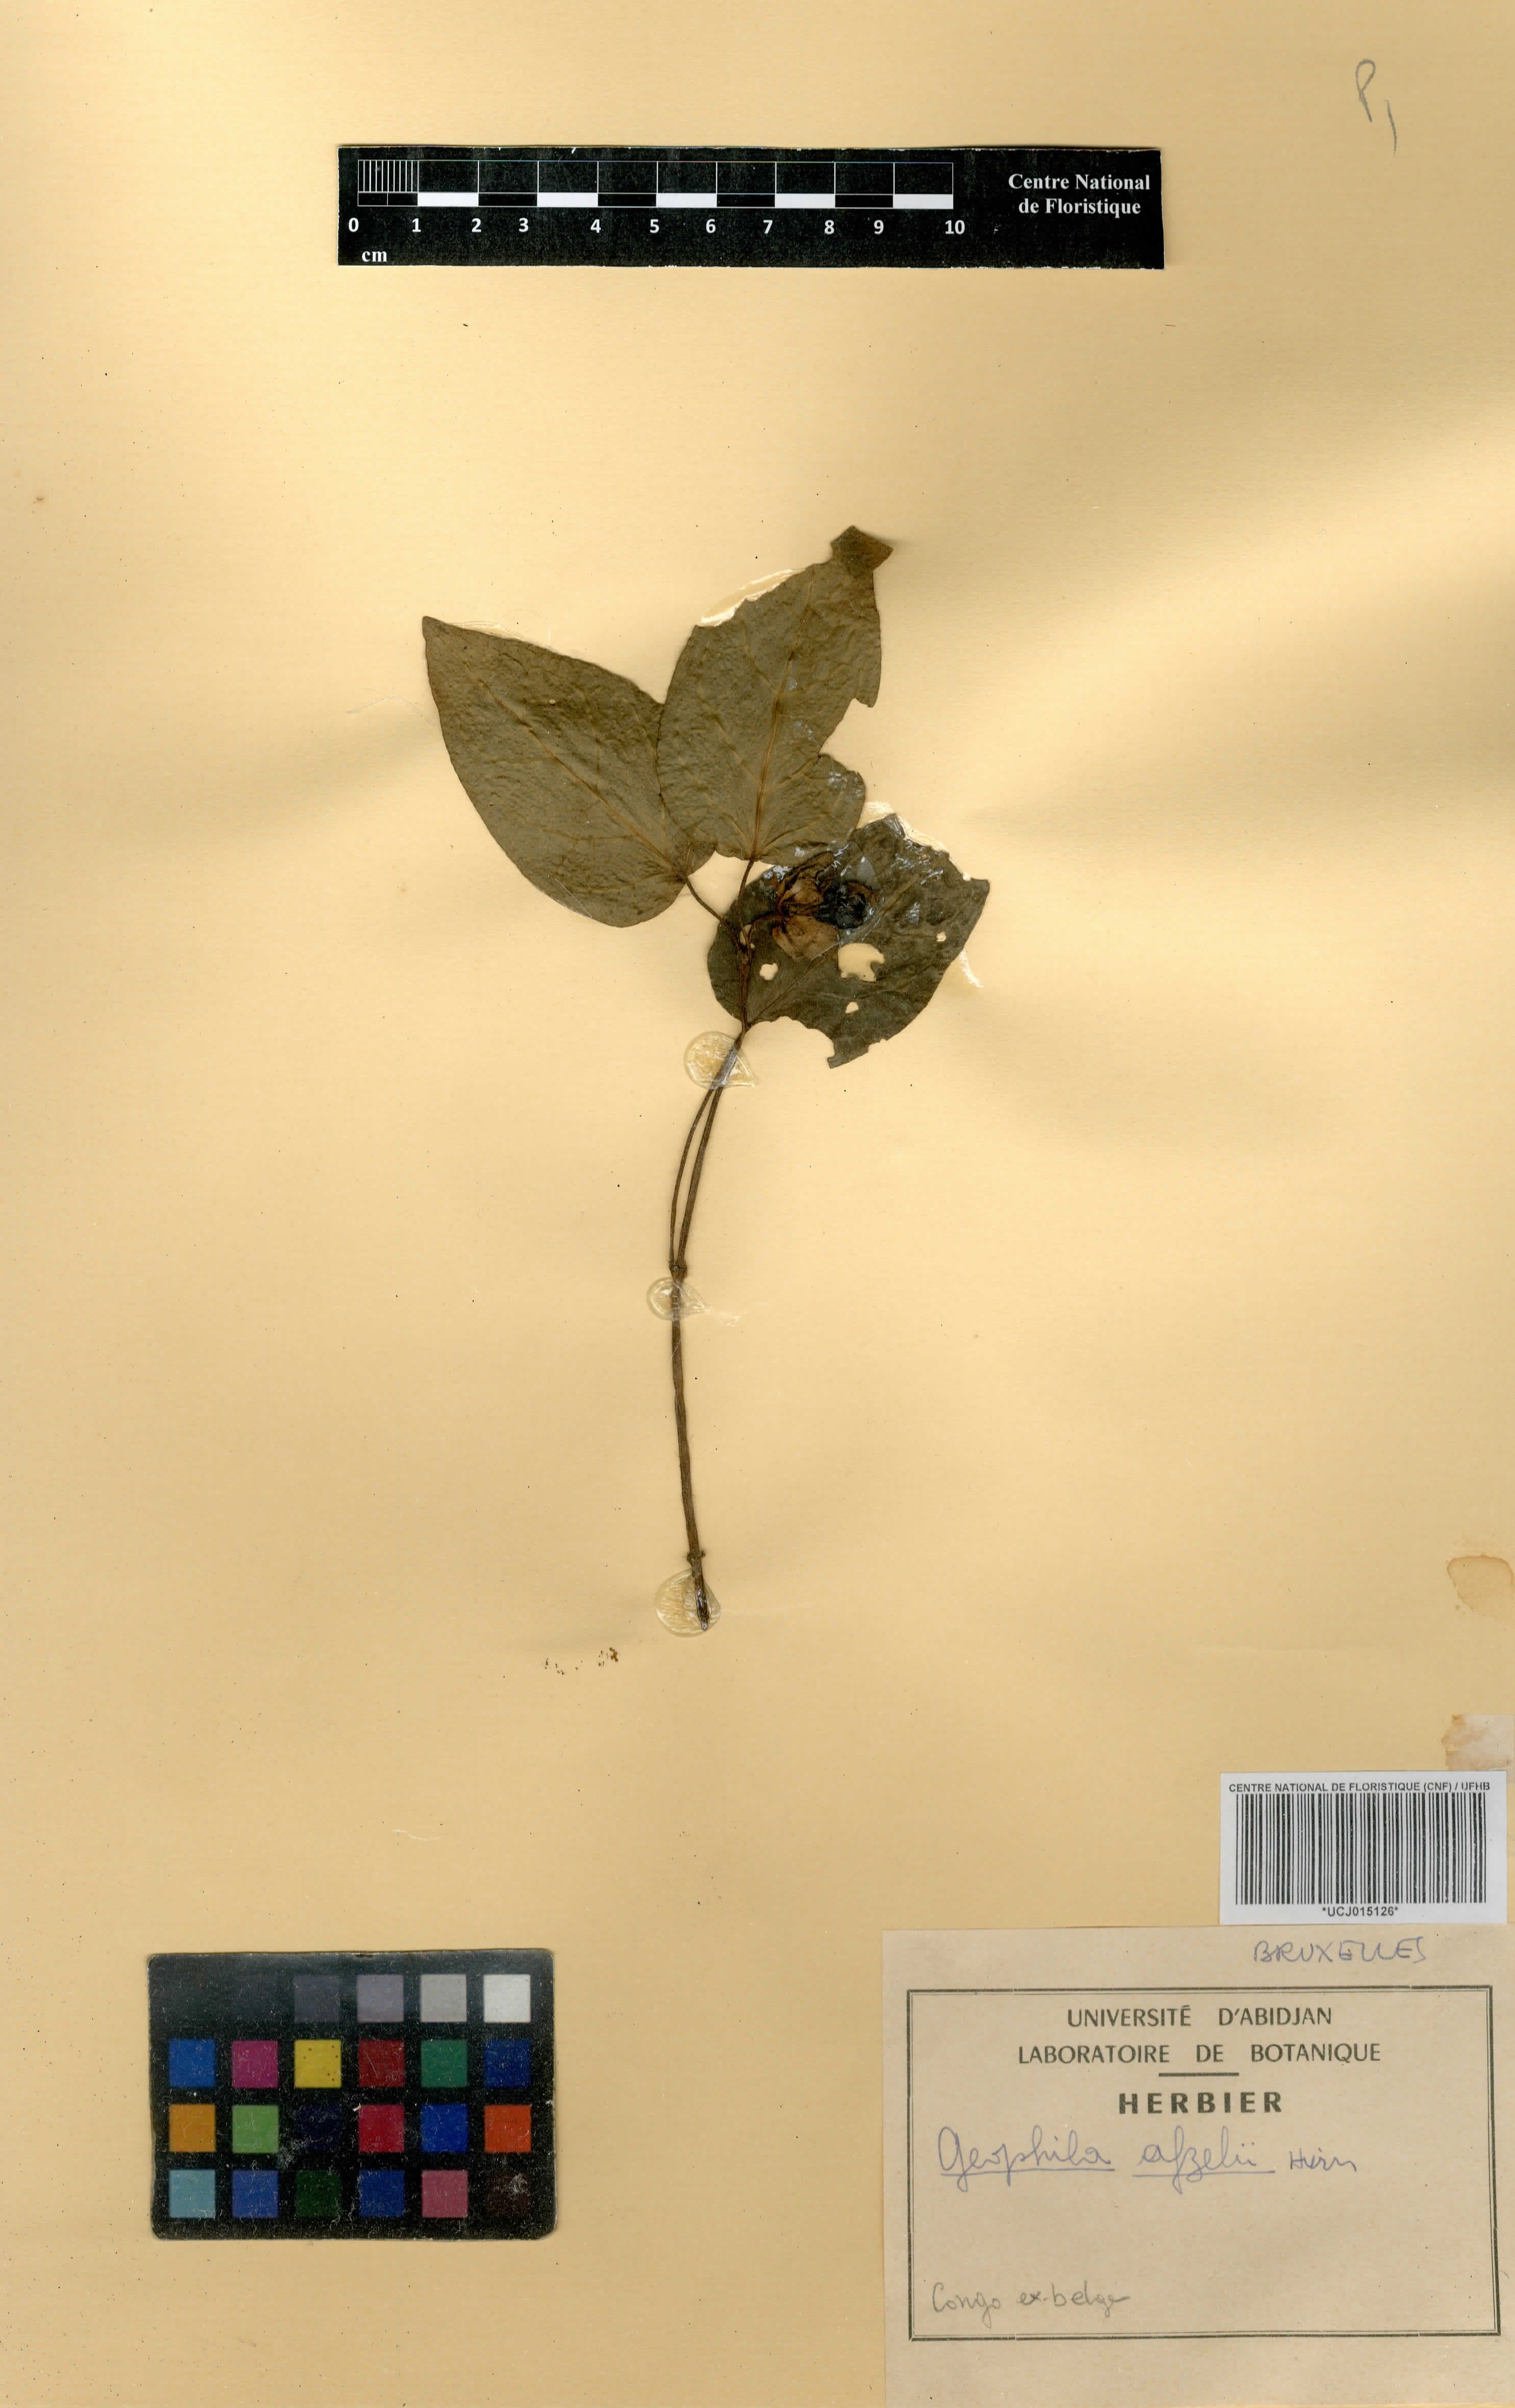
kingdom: Plantae
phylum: Tracheophyta
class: Magnoliopsida
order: Gentianales
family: Rubiaceae
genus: Geophila
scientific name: Geophila afzelii
